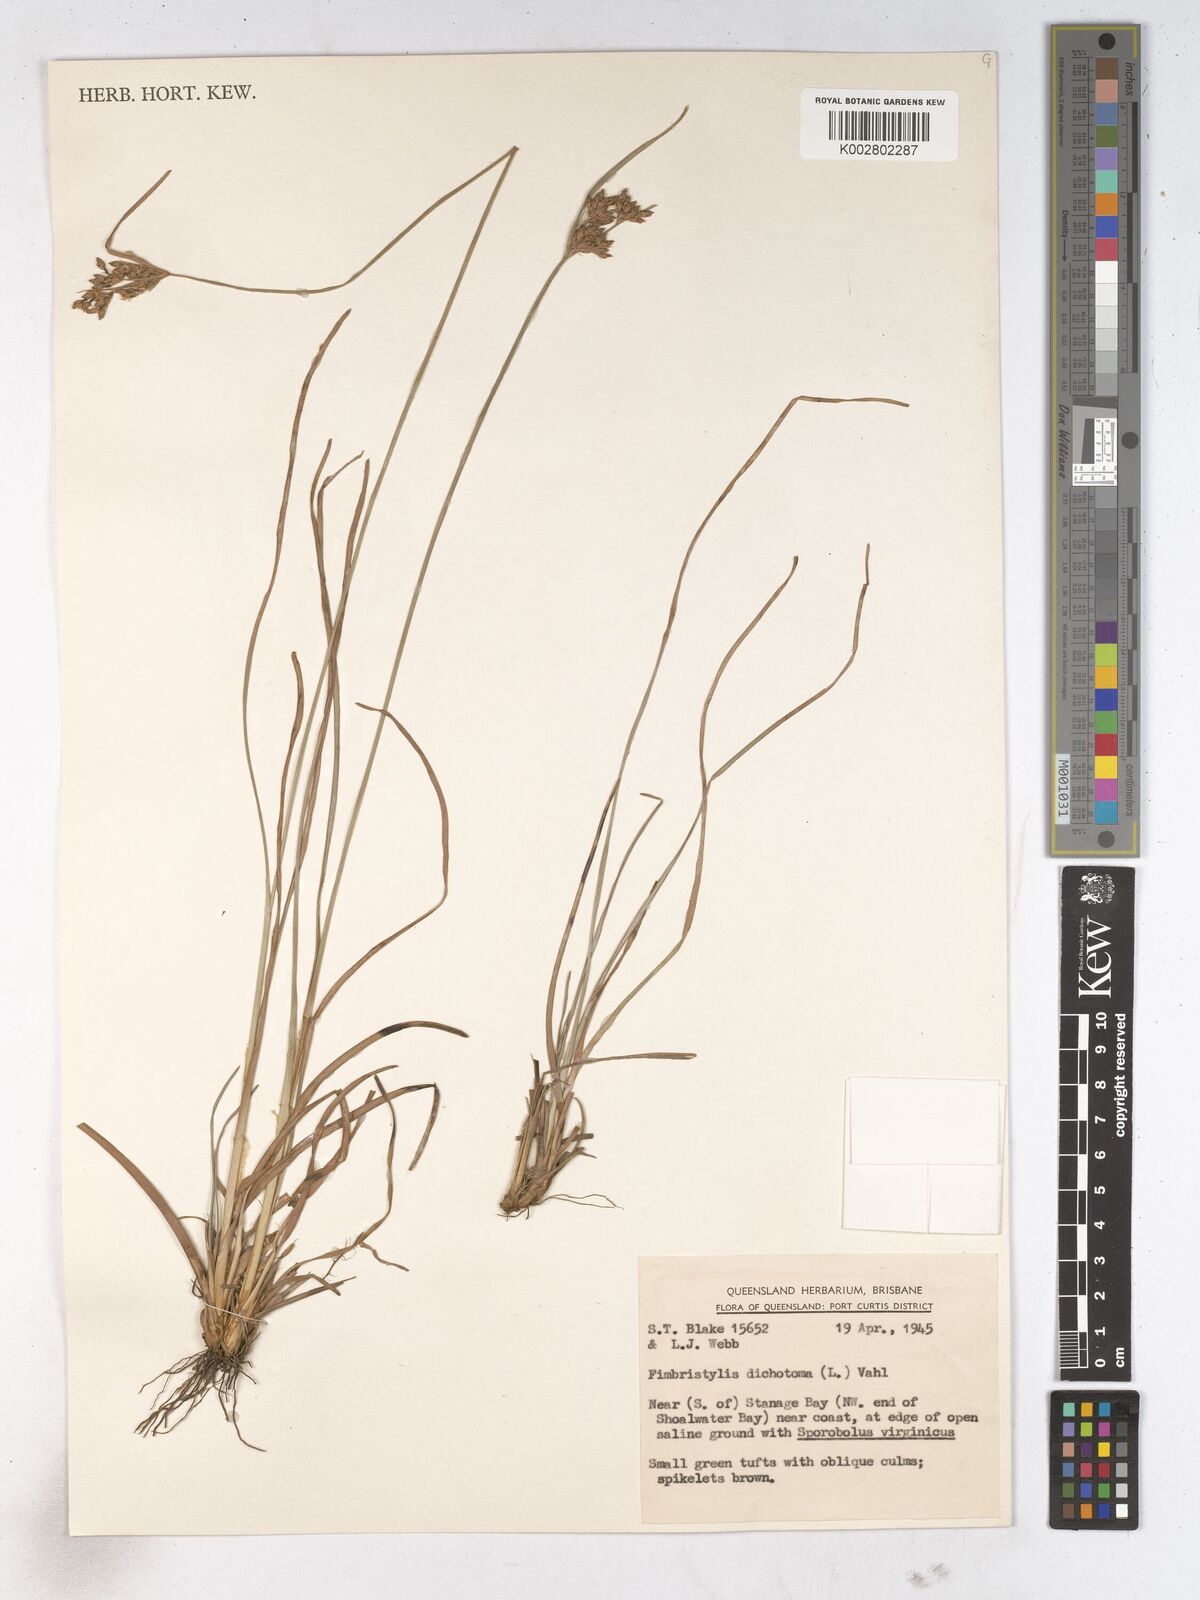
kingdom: Plantae
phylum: Tracheophyta
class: Liliopsida
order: Poales
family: Cyperaceae
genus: Fimbristylis
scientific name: Fimbristylis dichotoma
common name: Forked fimbry
